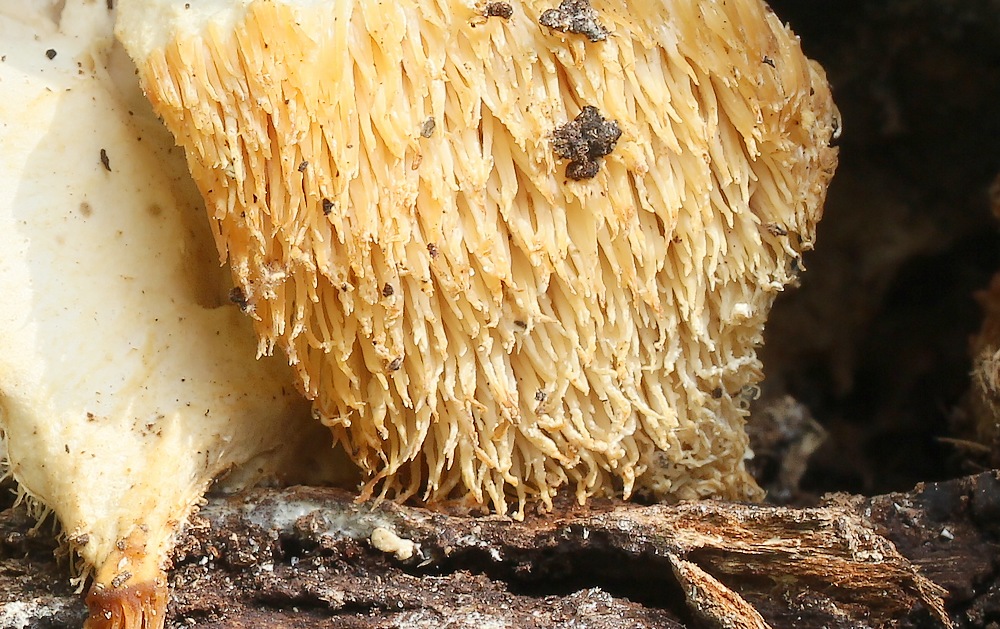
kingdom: Fungi
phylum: Basidiomycota
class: Agaricomycetes
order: Russulales
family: Hericiaceae
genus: Hericium
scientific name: Hericium cirrhatum
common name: børstepigsvamp
